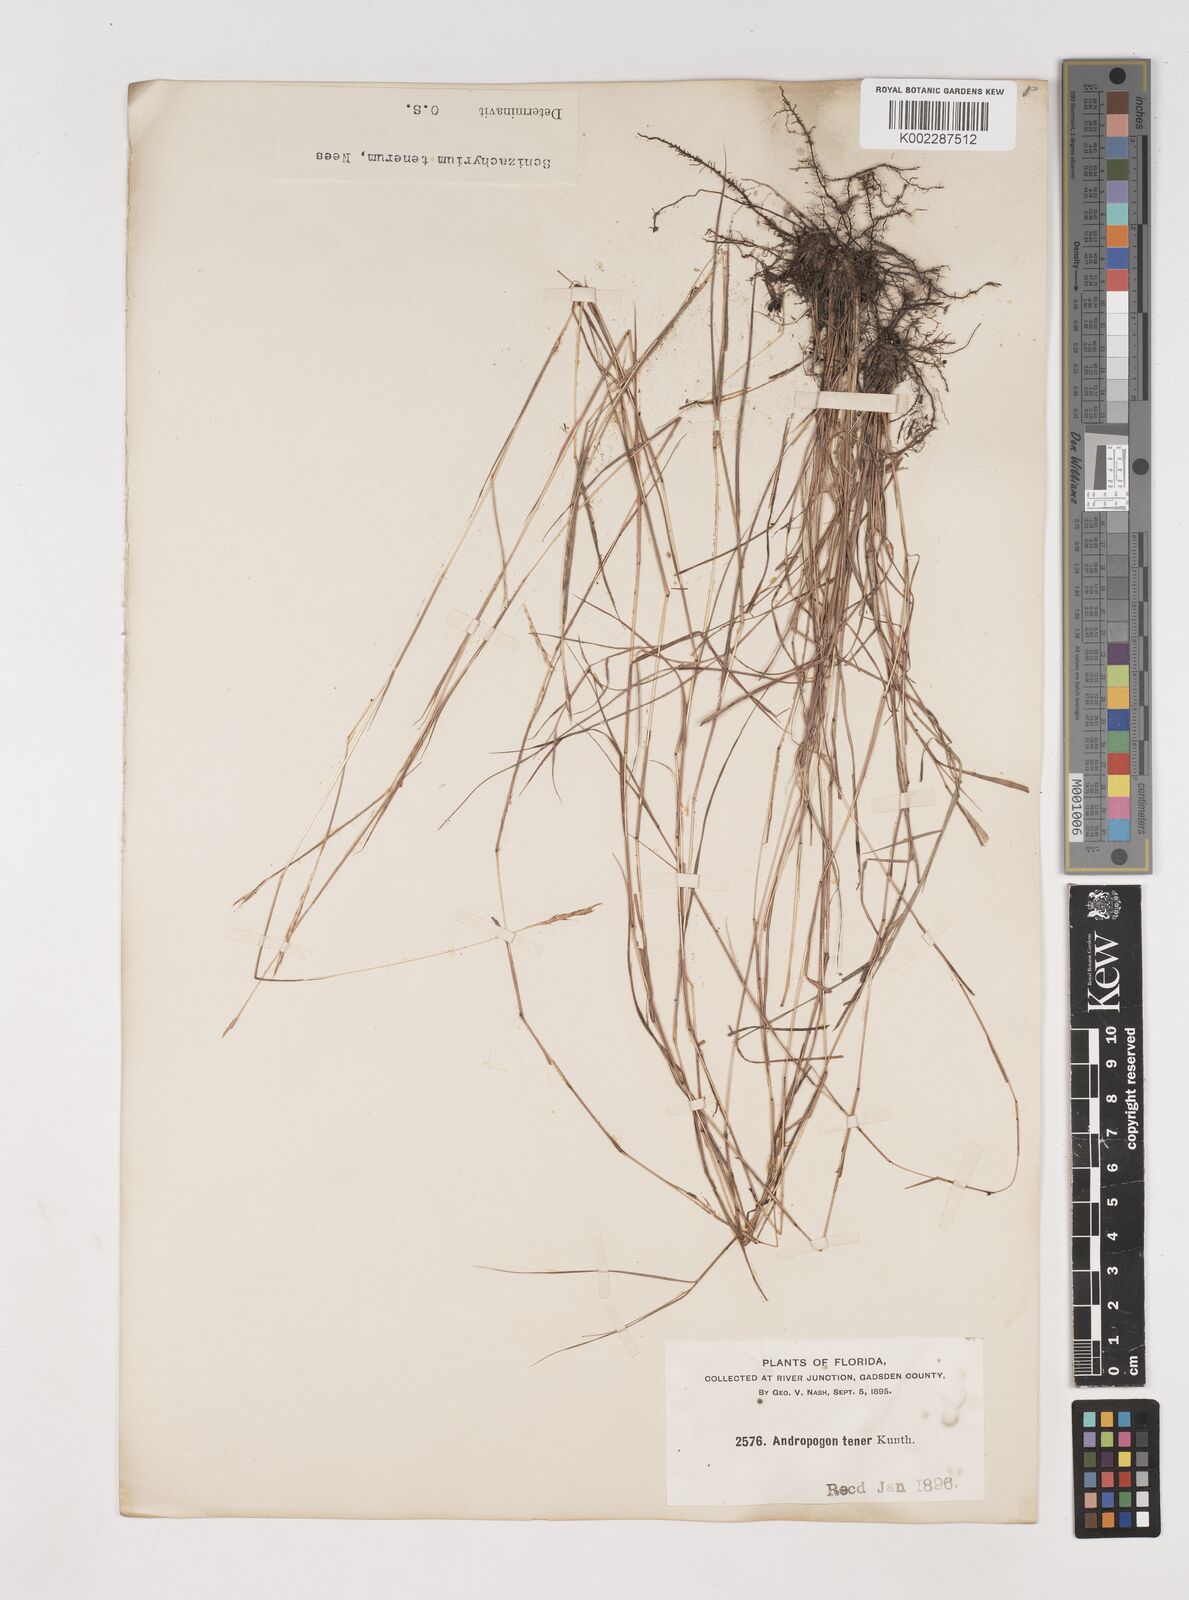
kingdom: Plantae
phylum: Tracheophyta
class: Liliopsida
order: Poales
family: Poaceae
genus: Andropogon
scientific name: Andropogon tener
